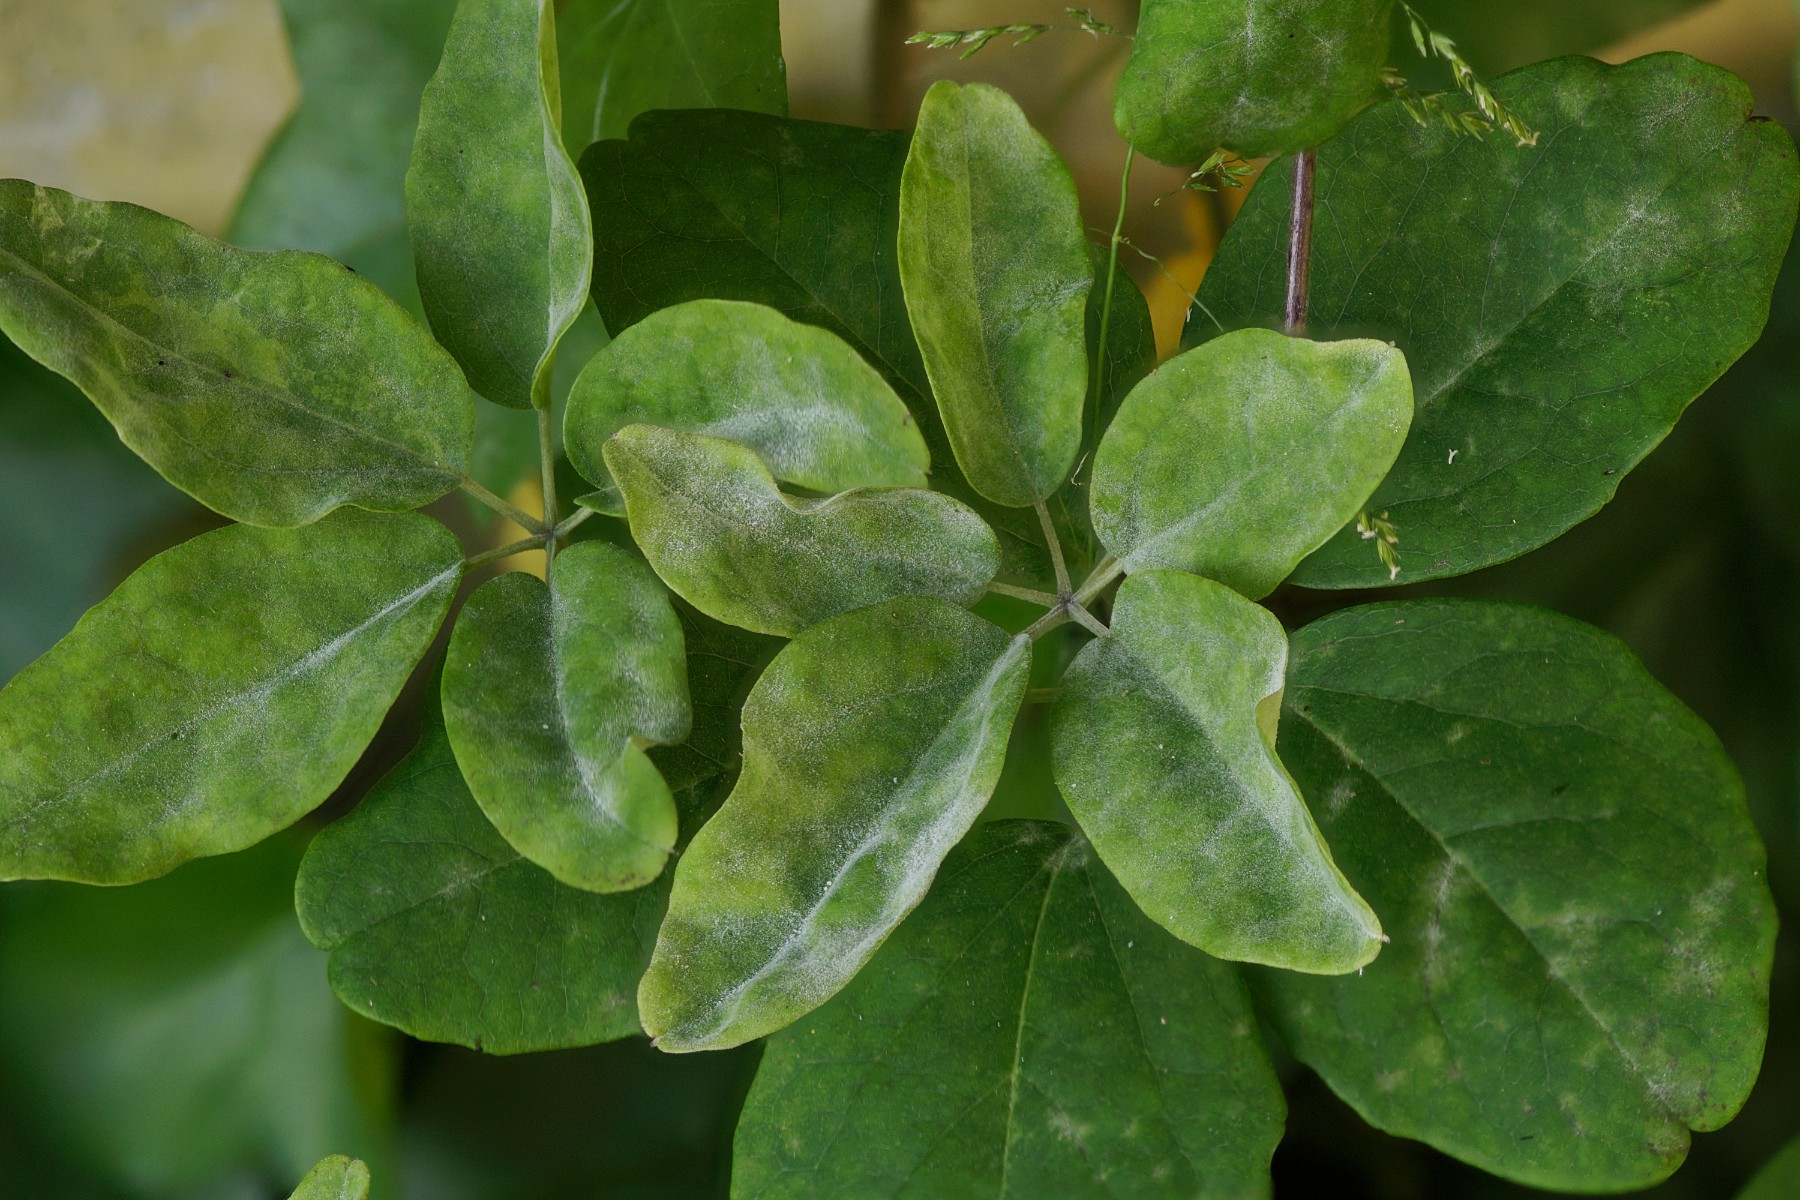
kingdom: Fungi
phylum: Ascomycota
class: Leotiomycetes
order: Helotiales
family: Erysiphaceae
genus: Erysiphe
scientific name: Erysiphe akebiae
